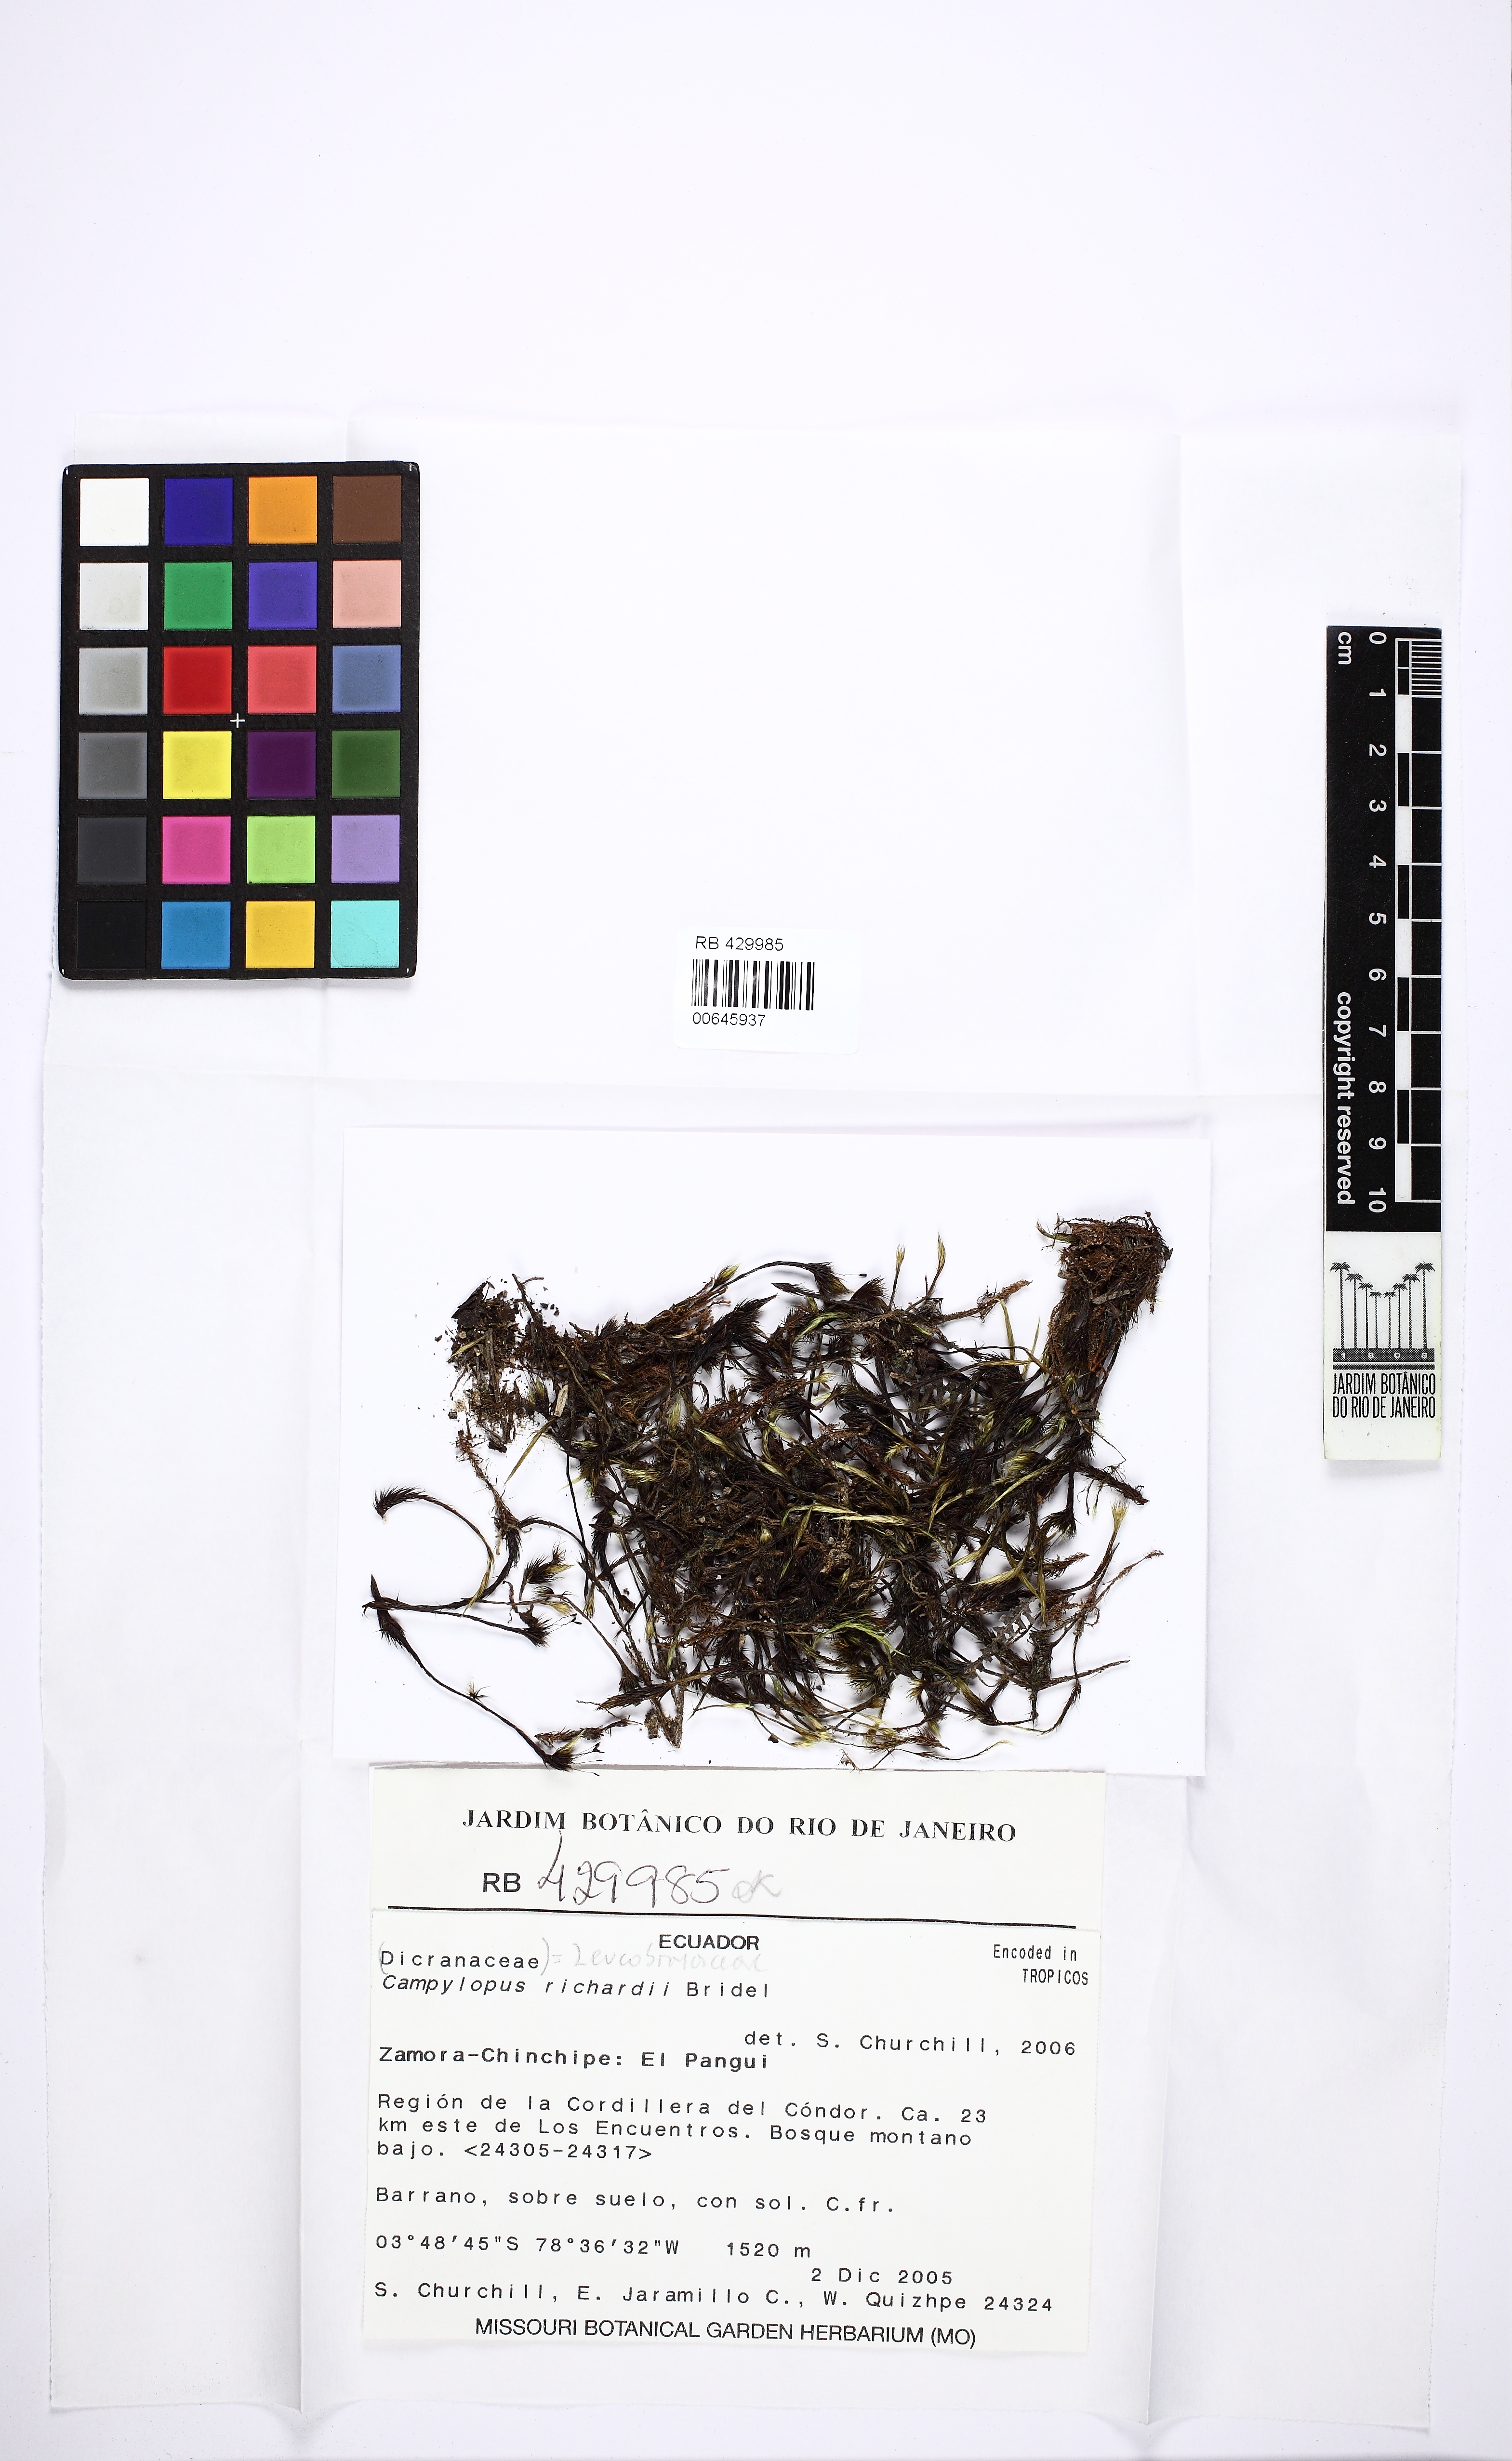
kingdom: Plantae
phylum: Bryophyta
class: Bryopsida
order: Dicranales
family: Leucobryaceae
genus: Campylopus
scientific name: Campylopus richardii
